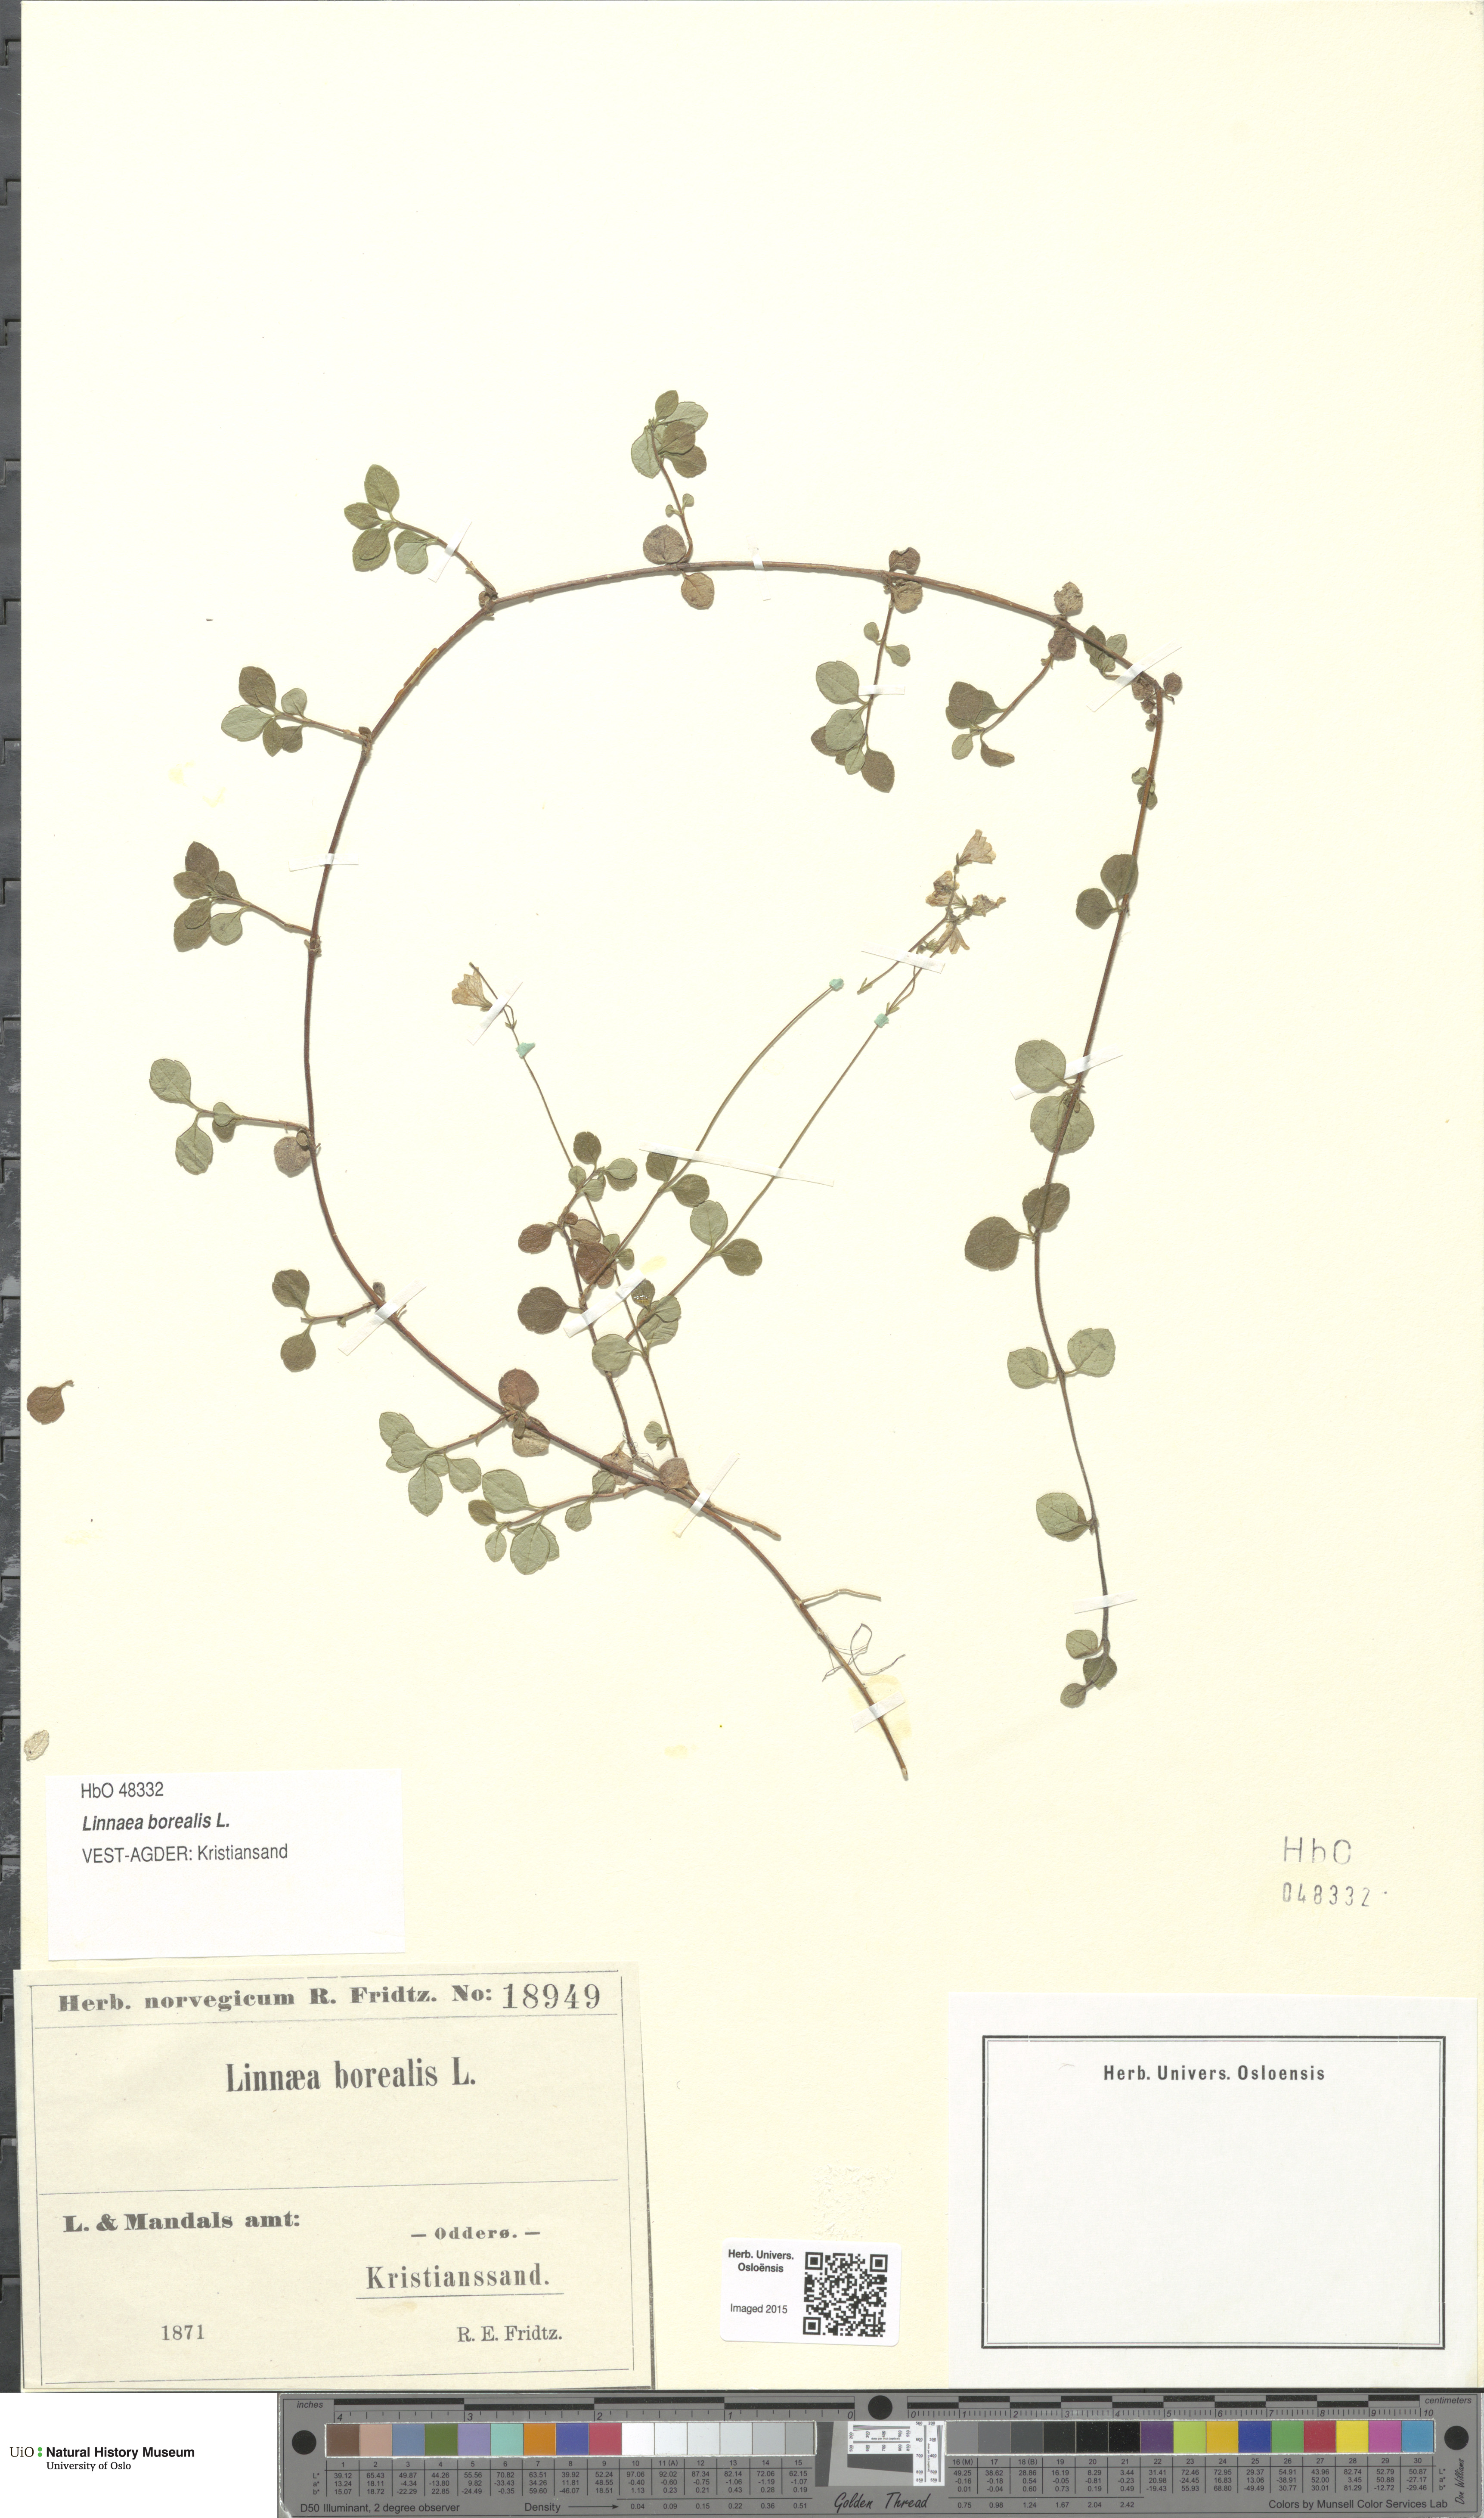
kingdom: Plantae
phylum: Tracheophyta
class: Magnoliopsida
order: Dipsacales
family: Caprifoliaceae
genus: Linnaea
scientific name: Linnaea borealis
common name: Twinflower
